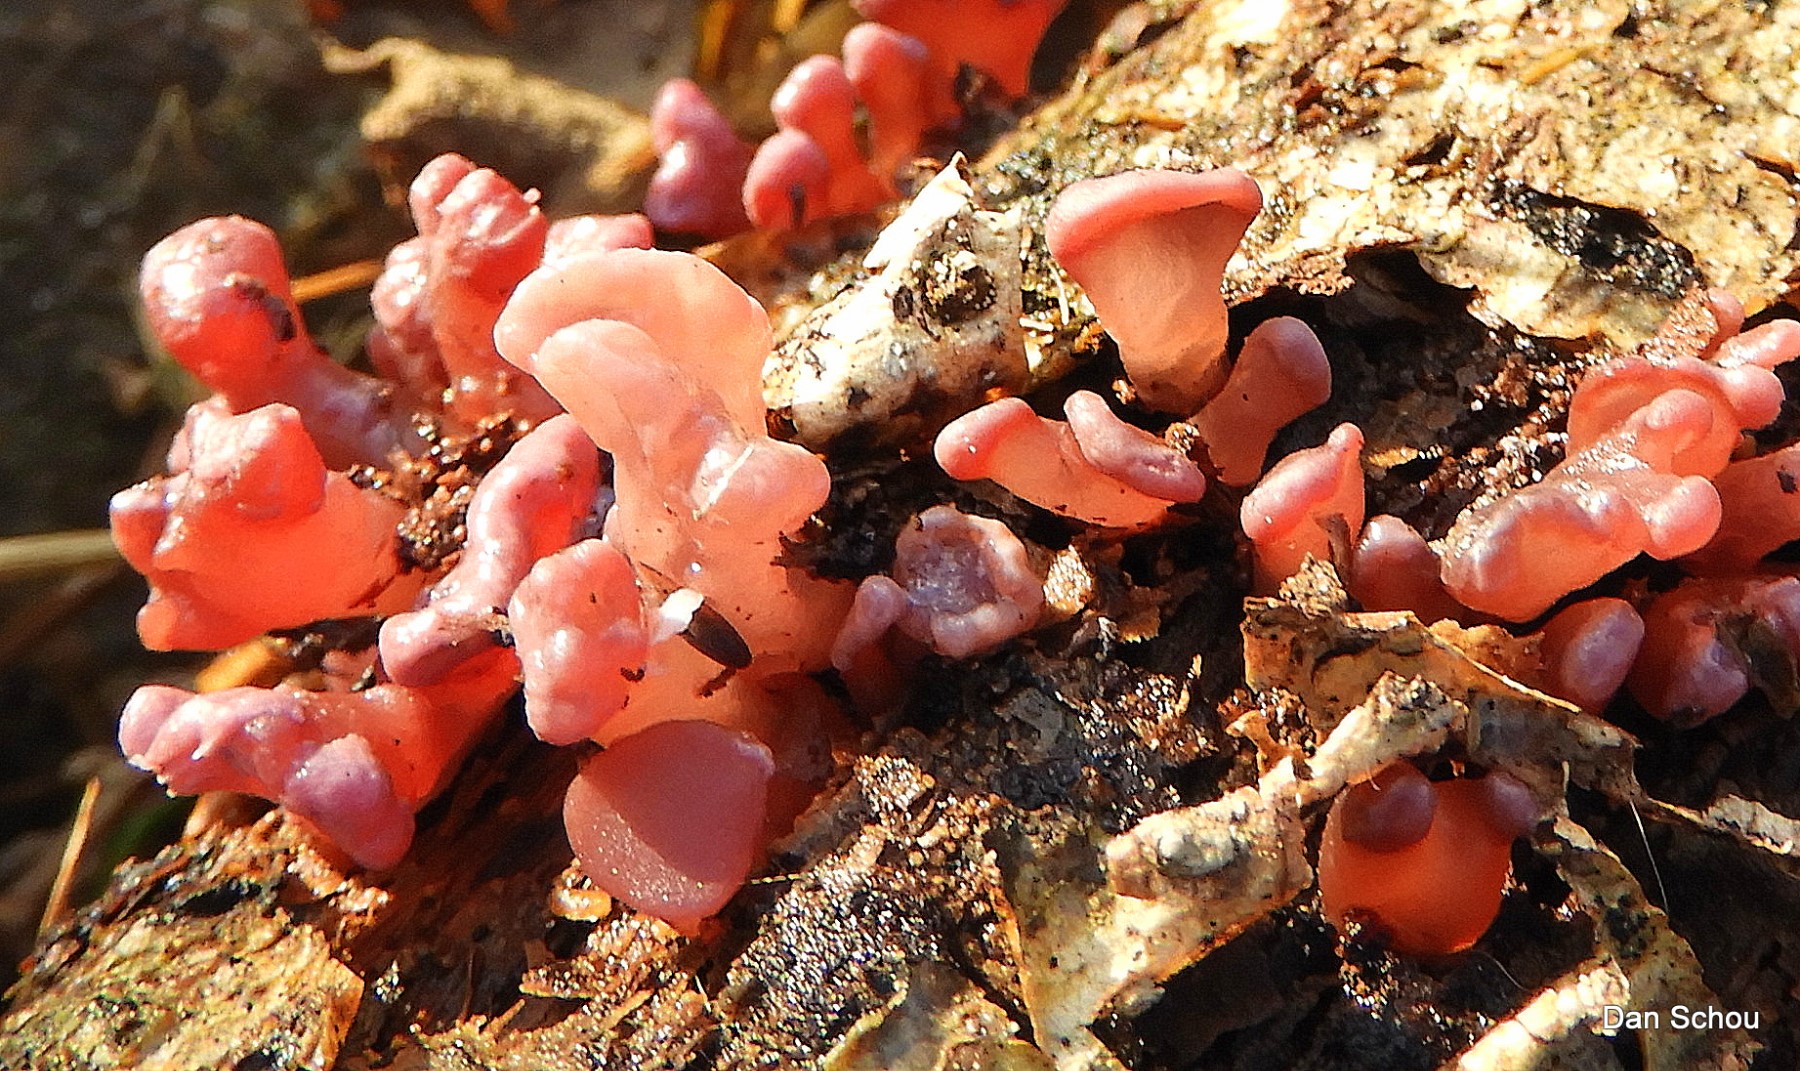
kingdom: Fungi
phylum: Ascomycota
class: Leotiomycetes
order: Helotiales
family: Gelatinodiscaceae
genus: Ascocoryne
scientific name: Ascocoryne sarcoides
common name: rødlilla sejskive
